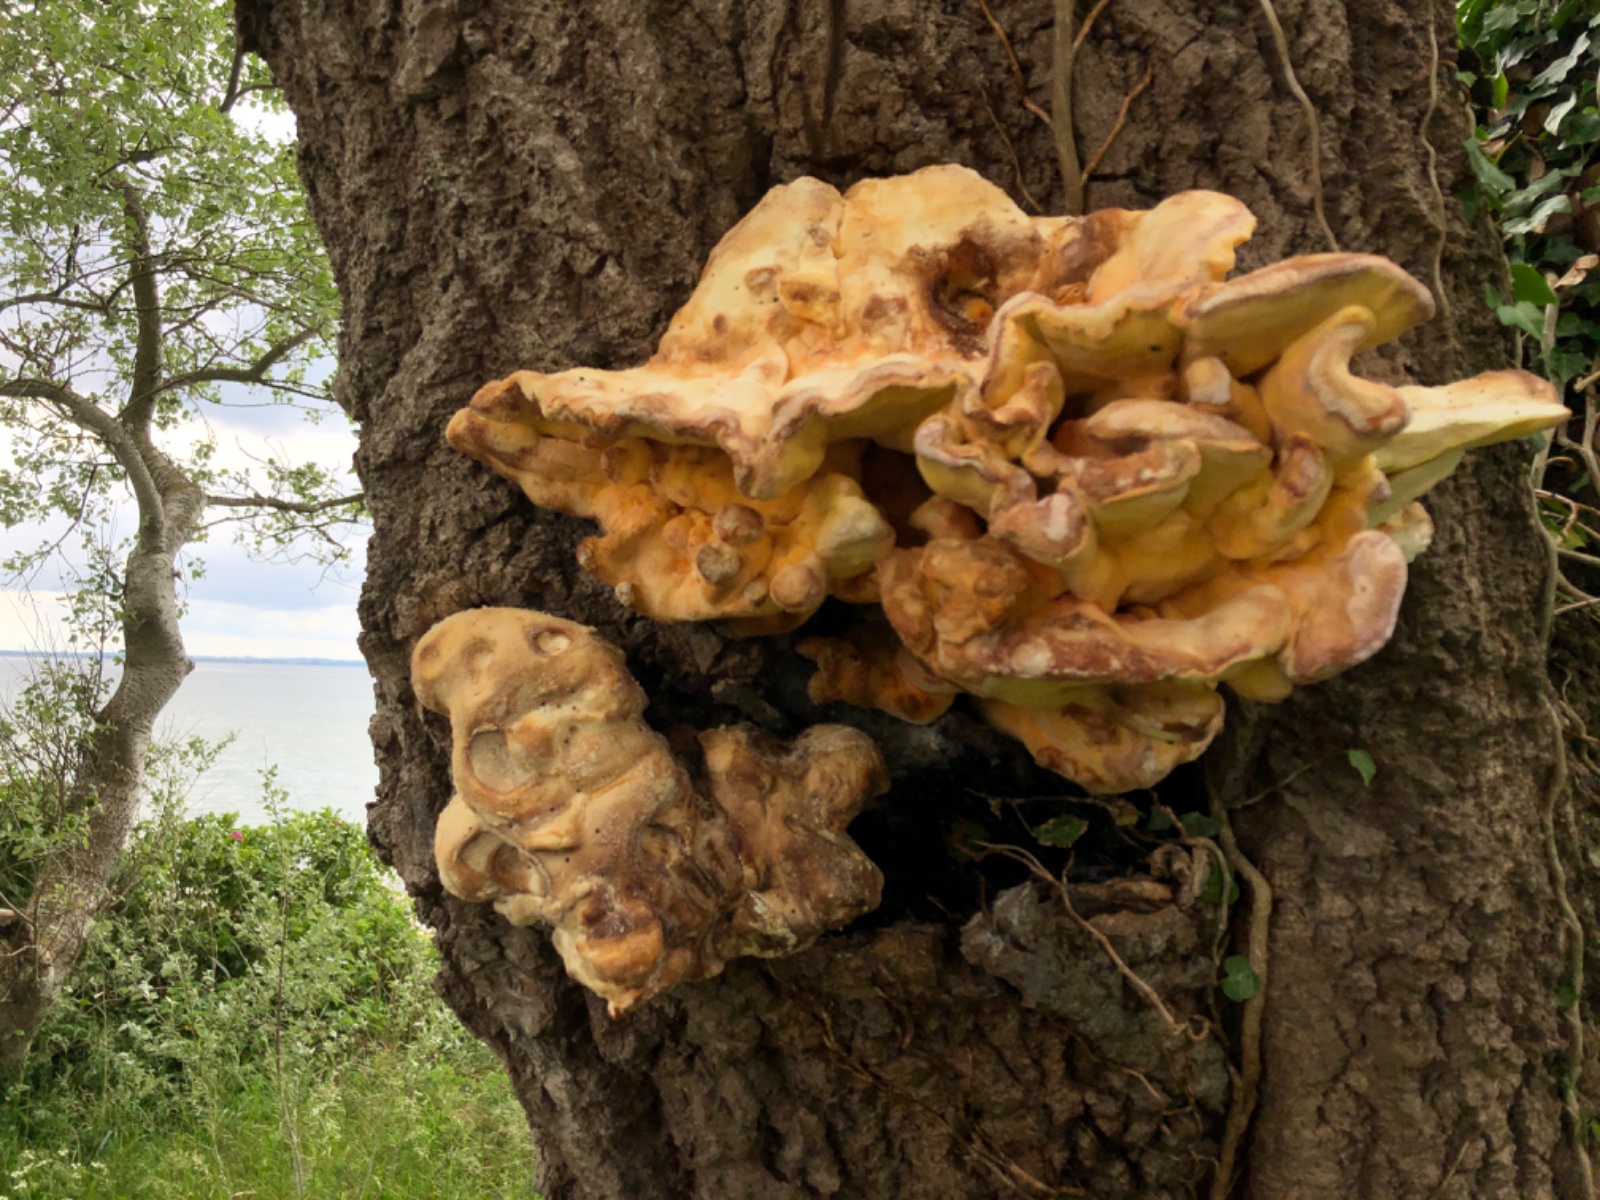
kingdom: Fungi
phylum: Basidiomycota
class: Agaricomycetes
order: Polyporales
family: Laetiporaceae
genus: Laetiporus
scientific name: Laetiporus sulphureus
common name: svovlporesvamp
